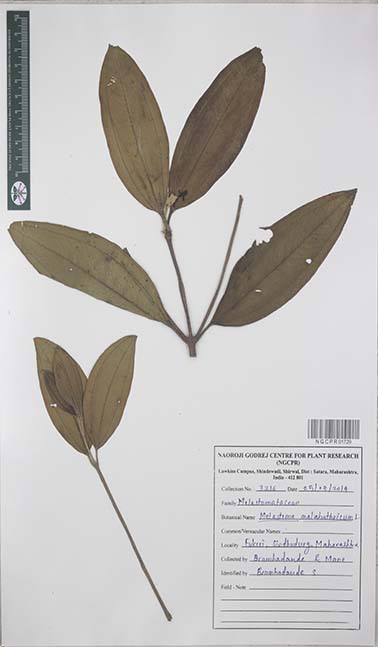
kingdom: Plantae
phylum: Tracheophyta
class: Magnoliopsida
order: Myrtales
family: Melastomataceae
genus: Melastoma
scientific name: Melastoma malabathricum
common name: Indian-rhododendron
